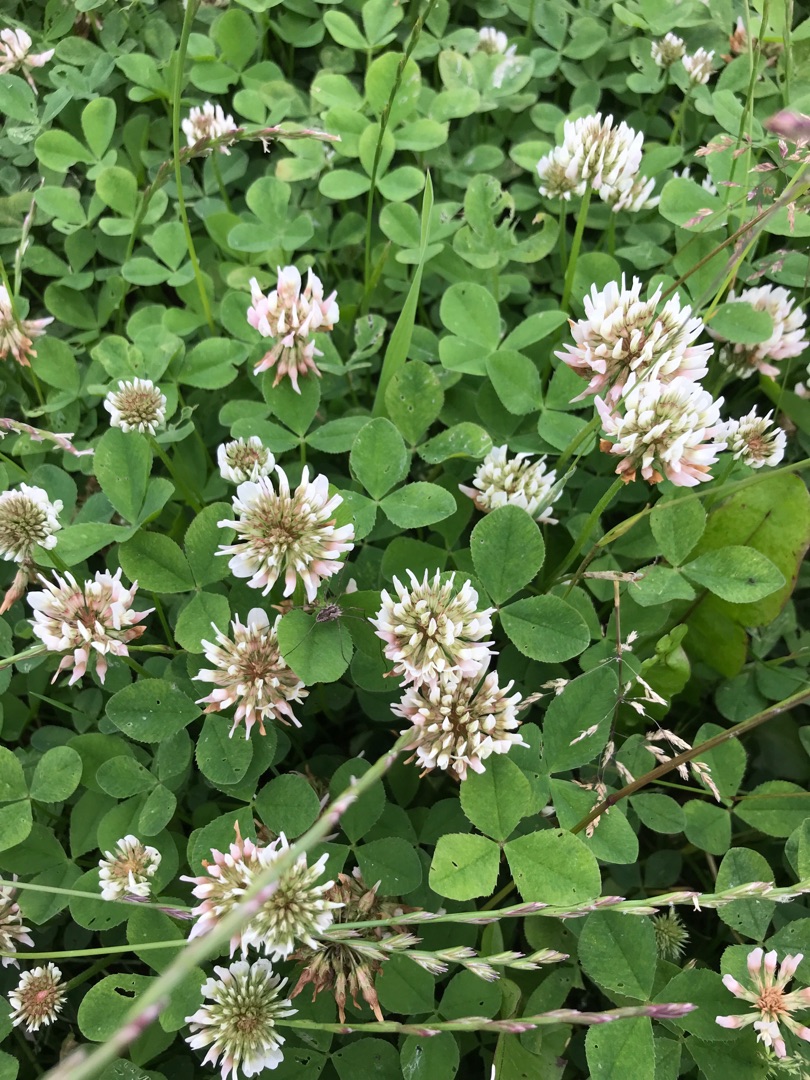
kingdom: Plantae
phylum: Tracheophyta
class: Magnoliopsida
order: Fabales
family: Fabaceae
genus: Trifolium
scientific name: Trifolium repens
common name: Hvid-kløver
